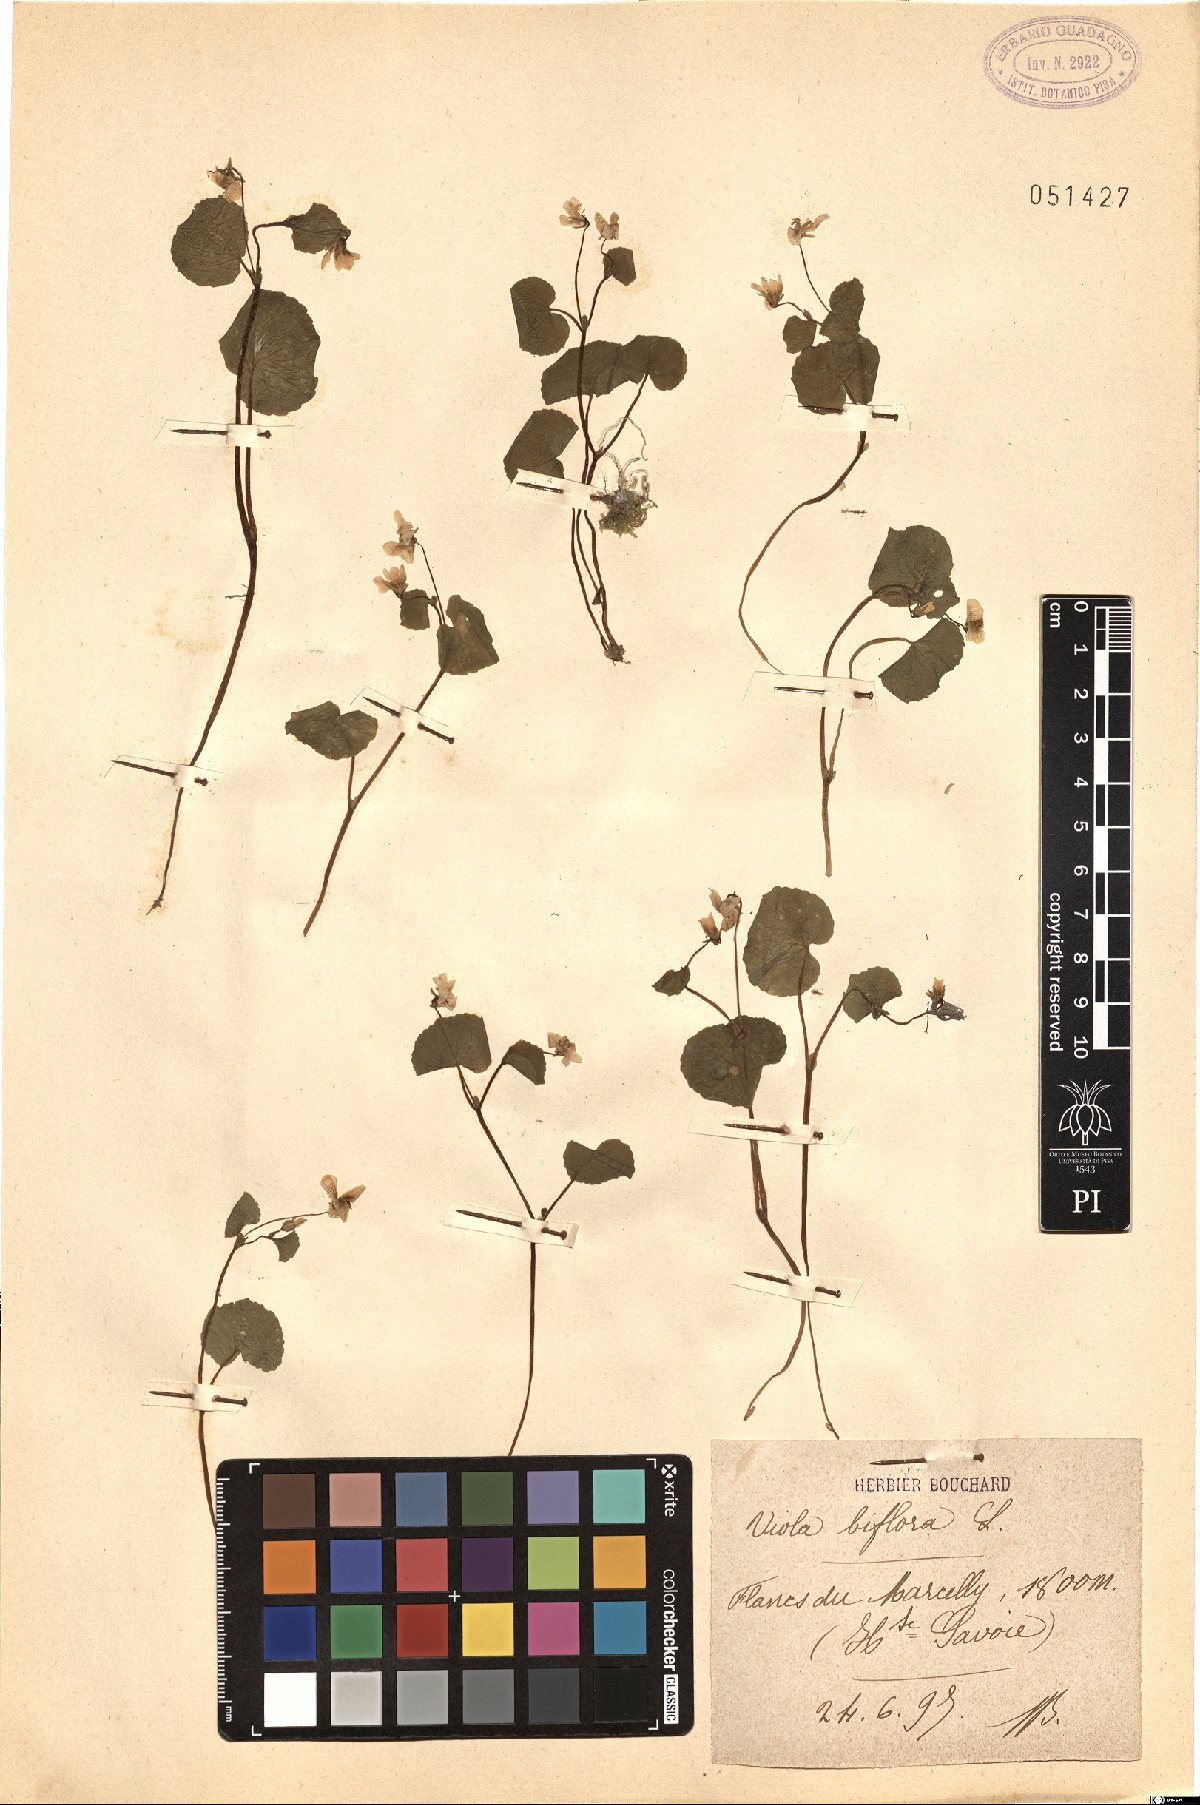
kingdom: Plantae
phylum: Tracheophyta
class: Magnoliopsida
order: Malpighiales
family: Violaceae
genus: Viola
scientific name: Viola biflora
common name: Alpine yellow violet
